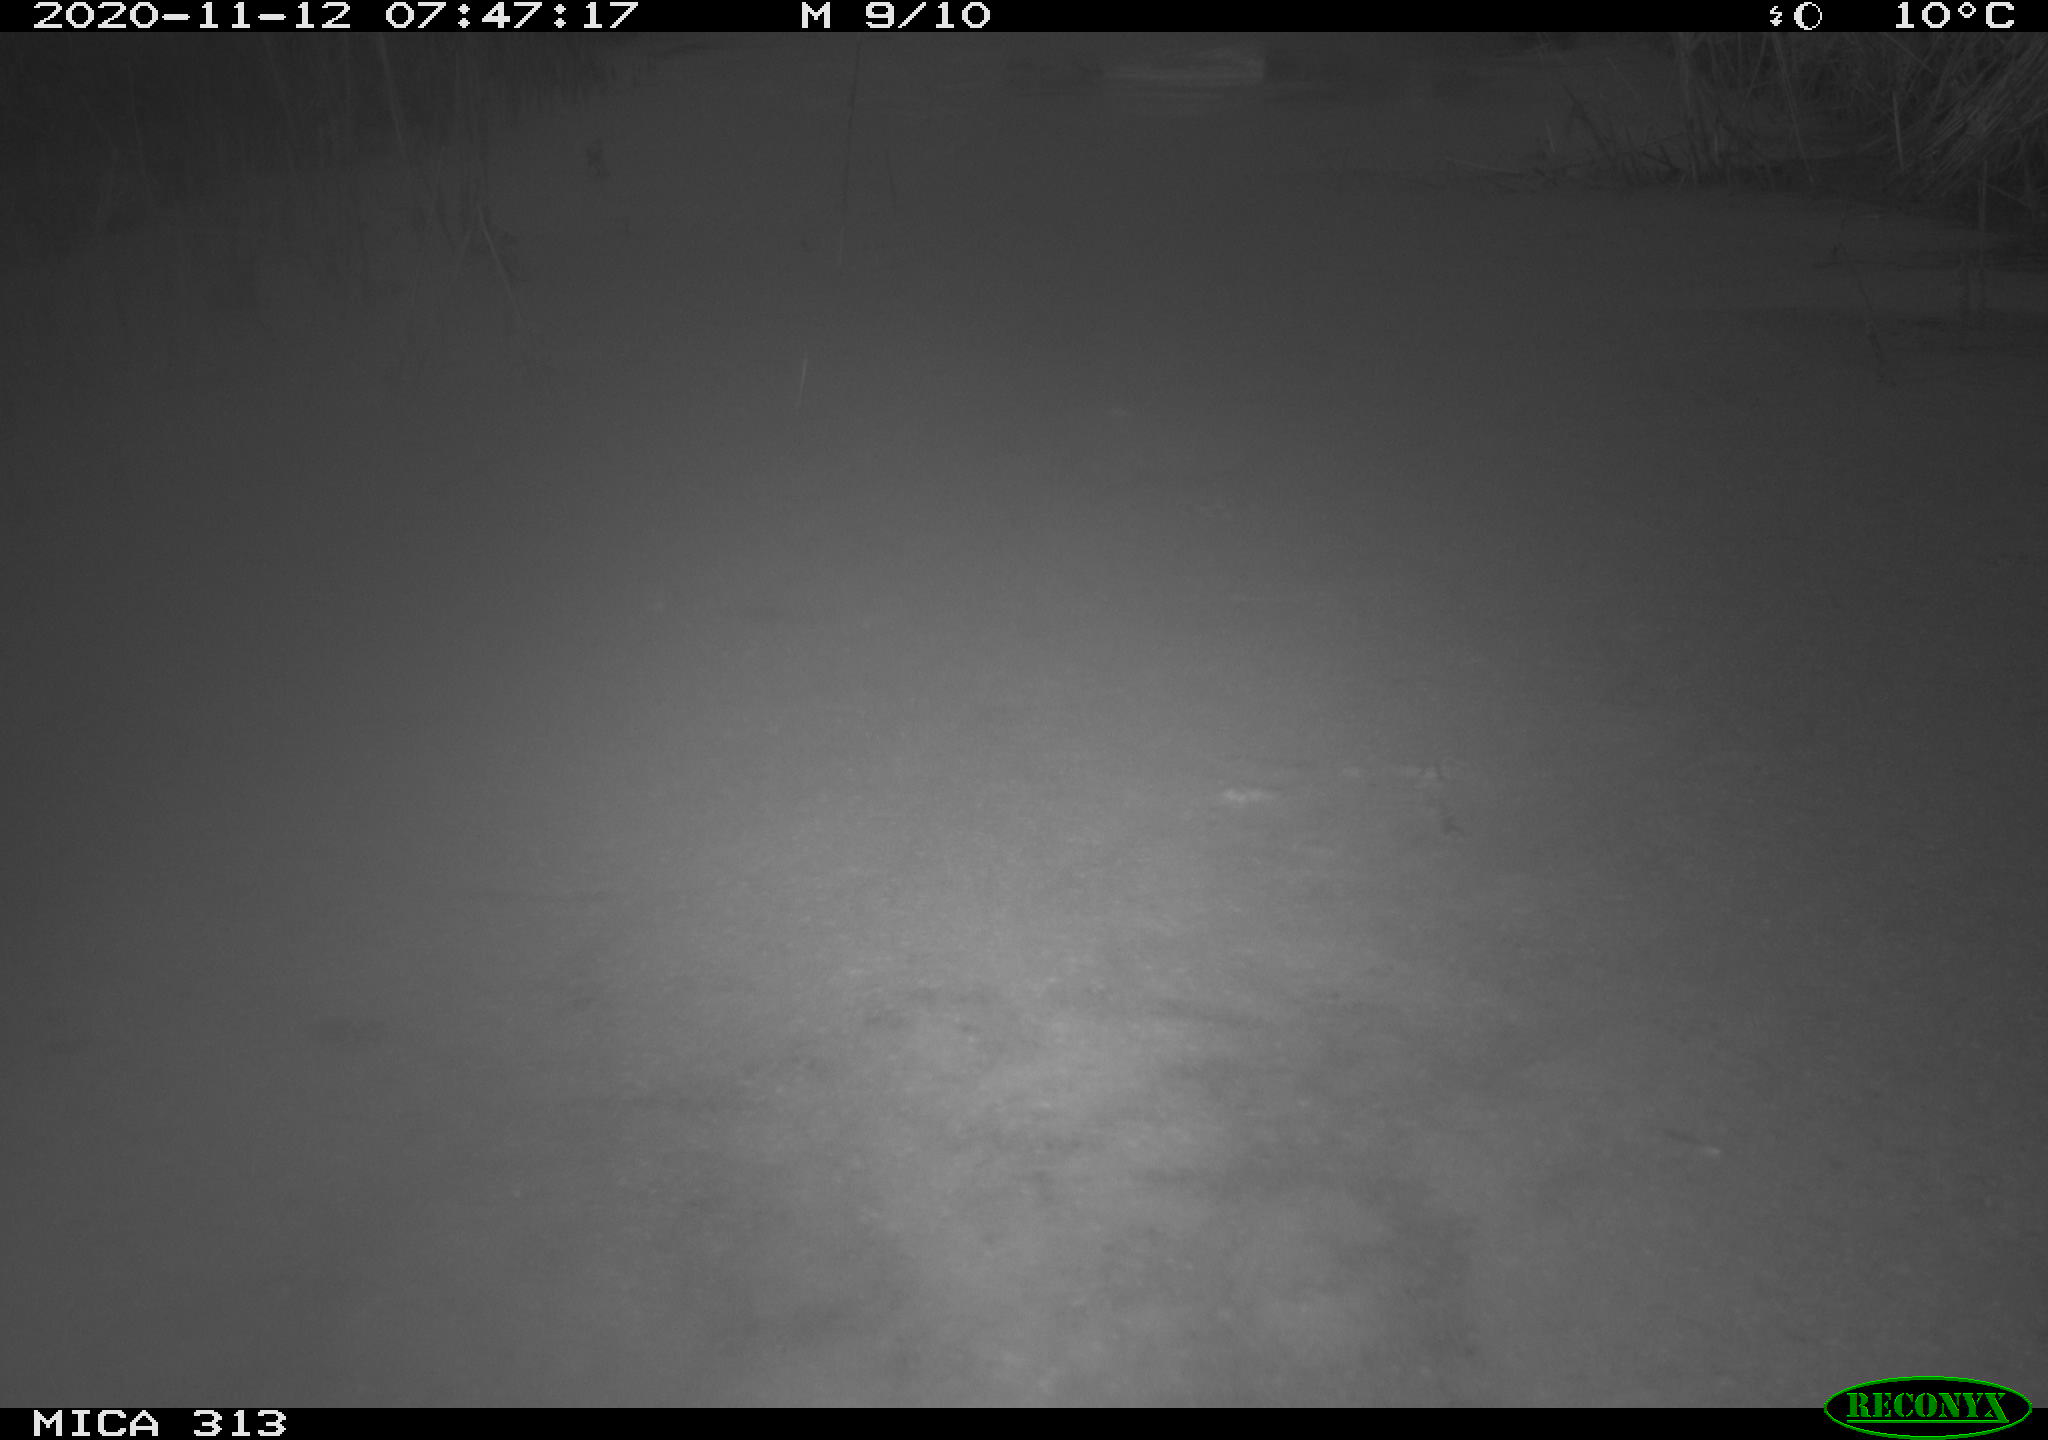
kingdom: Animalia
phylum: Chordata
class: Aves
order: Gruiformes
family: Rallidae
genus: Gallinula
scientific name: Gallinula chloropus
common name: Common moorhen
